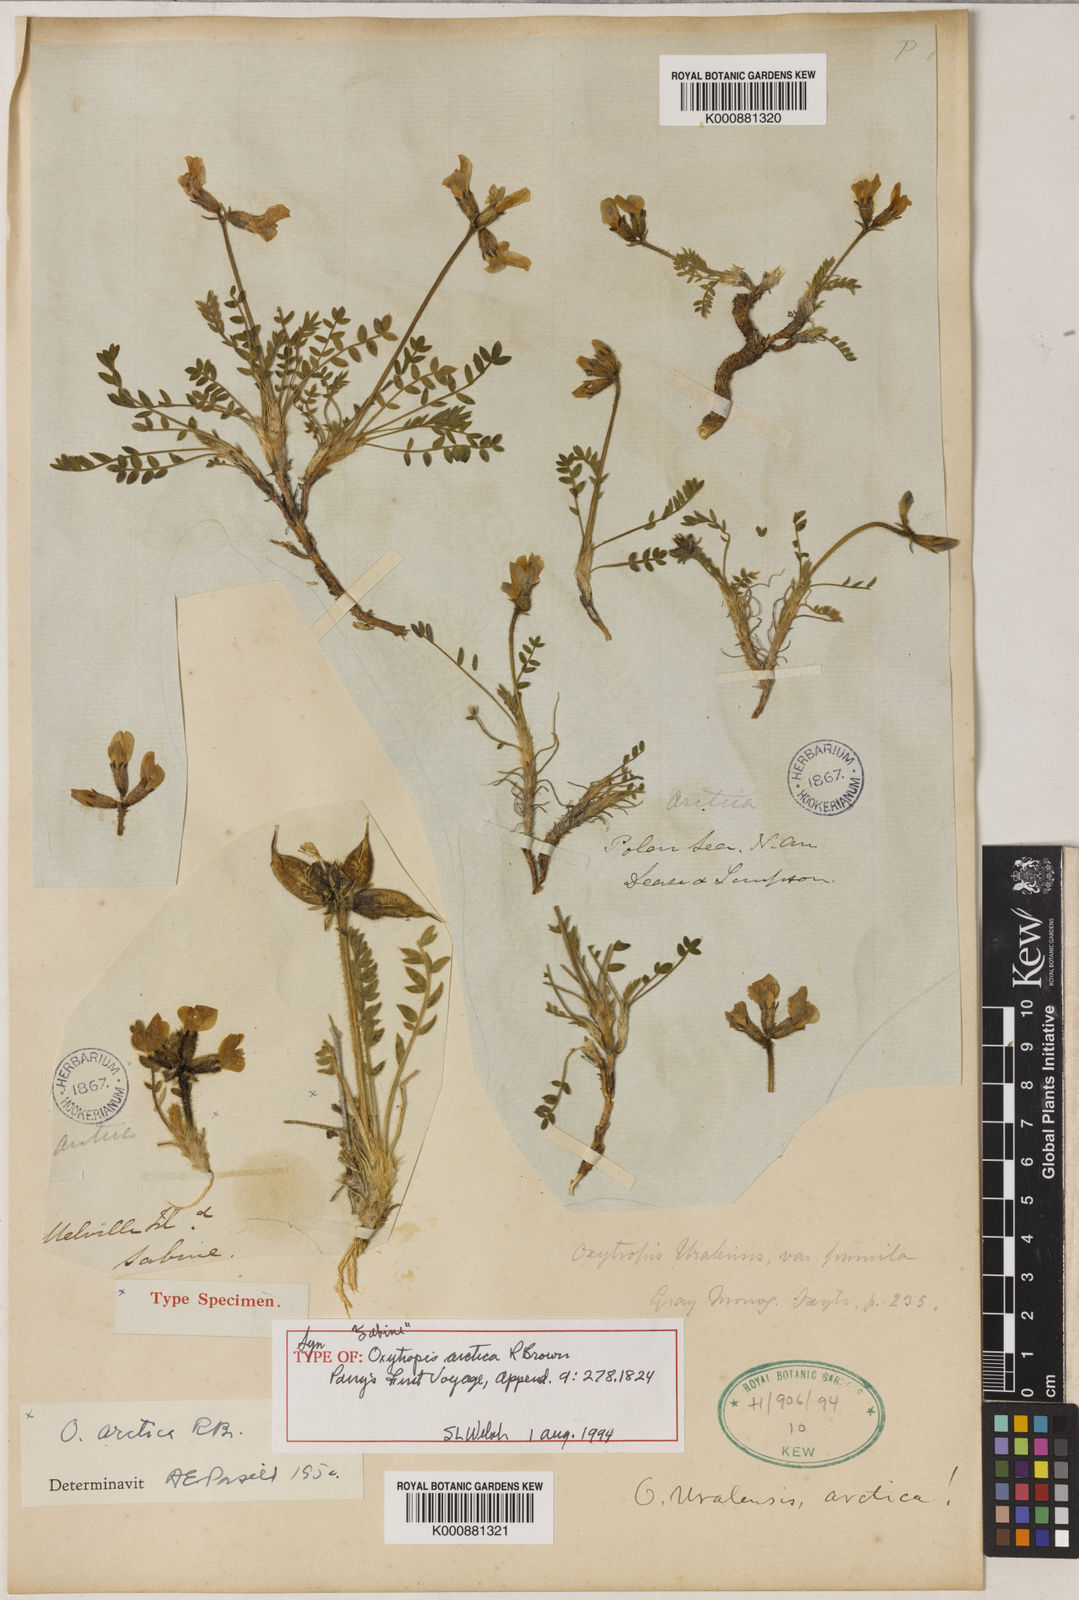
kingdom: Plantae
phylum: Tracheophyta
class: Magnoliopsida
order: Fabales
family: Fabaceae
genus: Oxytropis
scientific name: Oxytropis arctica
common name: Arctic locoweed
